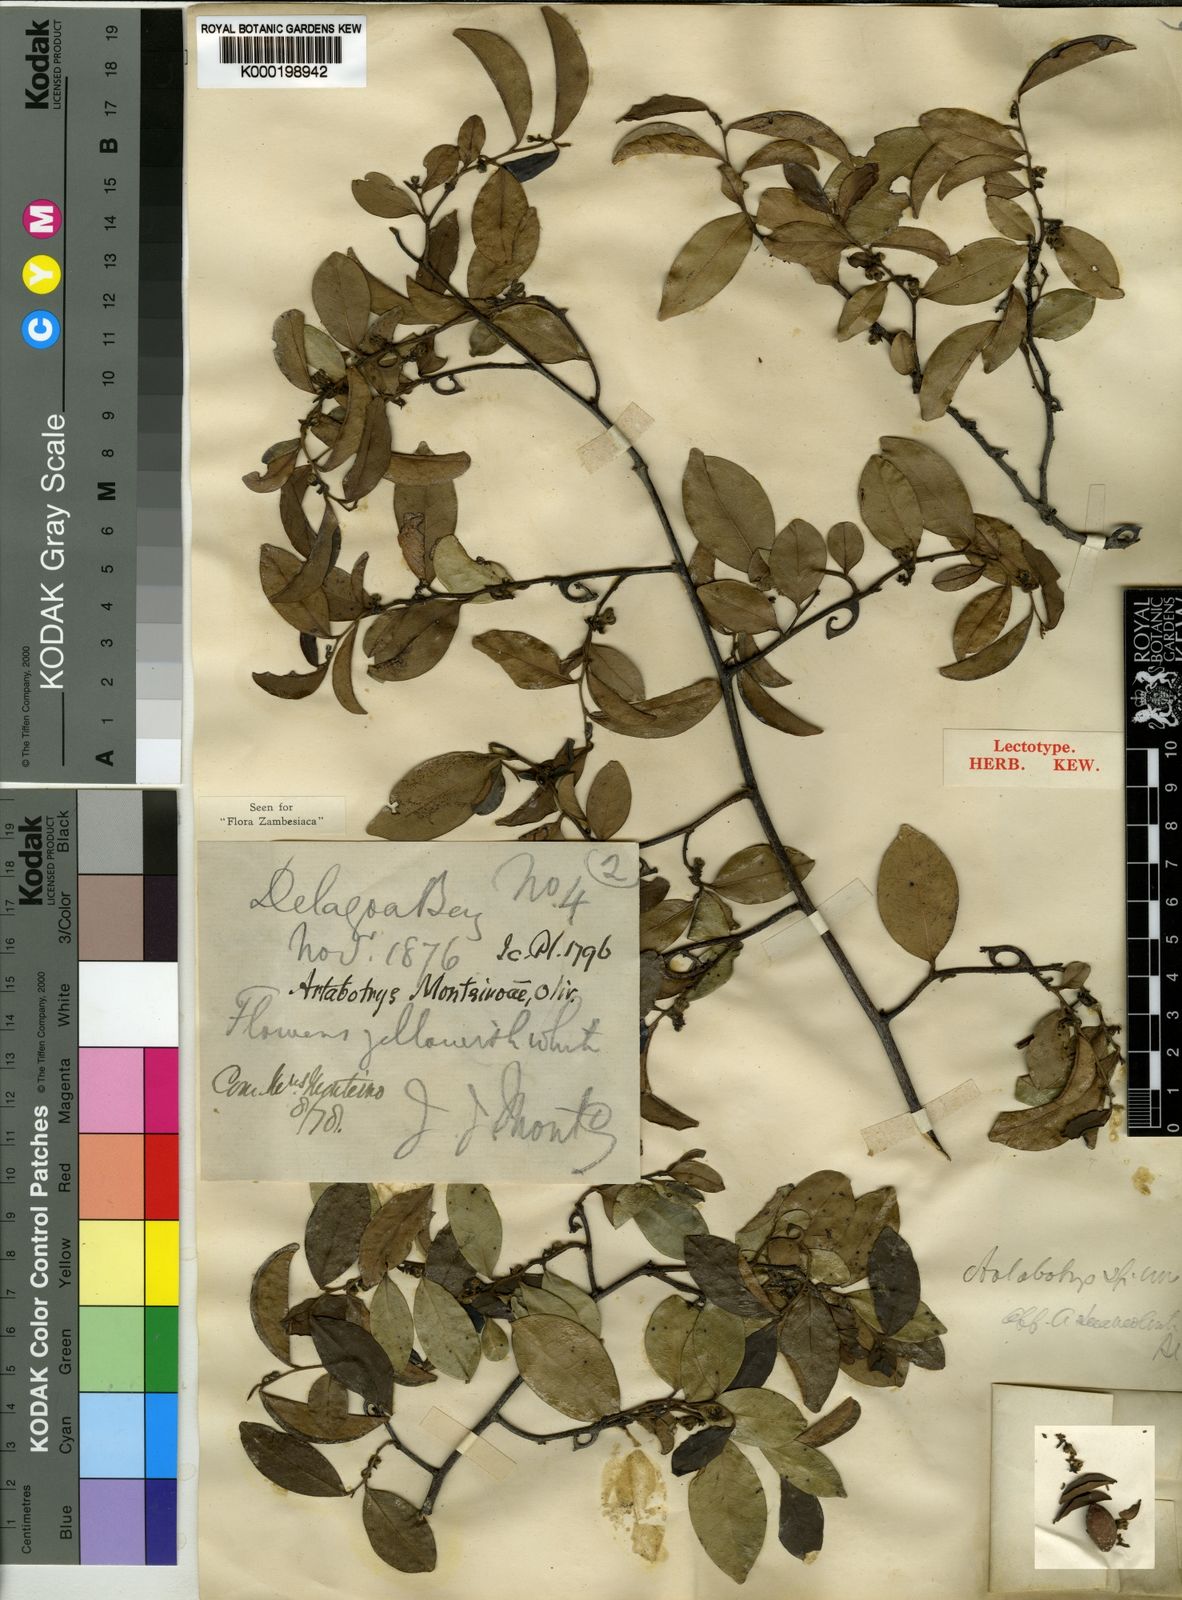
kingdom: Plantae
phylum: Tracheophyta
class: Magnoliopsida
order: Magnoliales
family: Annonaceae
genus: Artabotrys
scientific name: Artabotrys monteiroae
